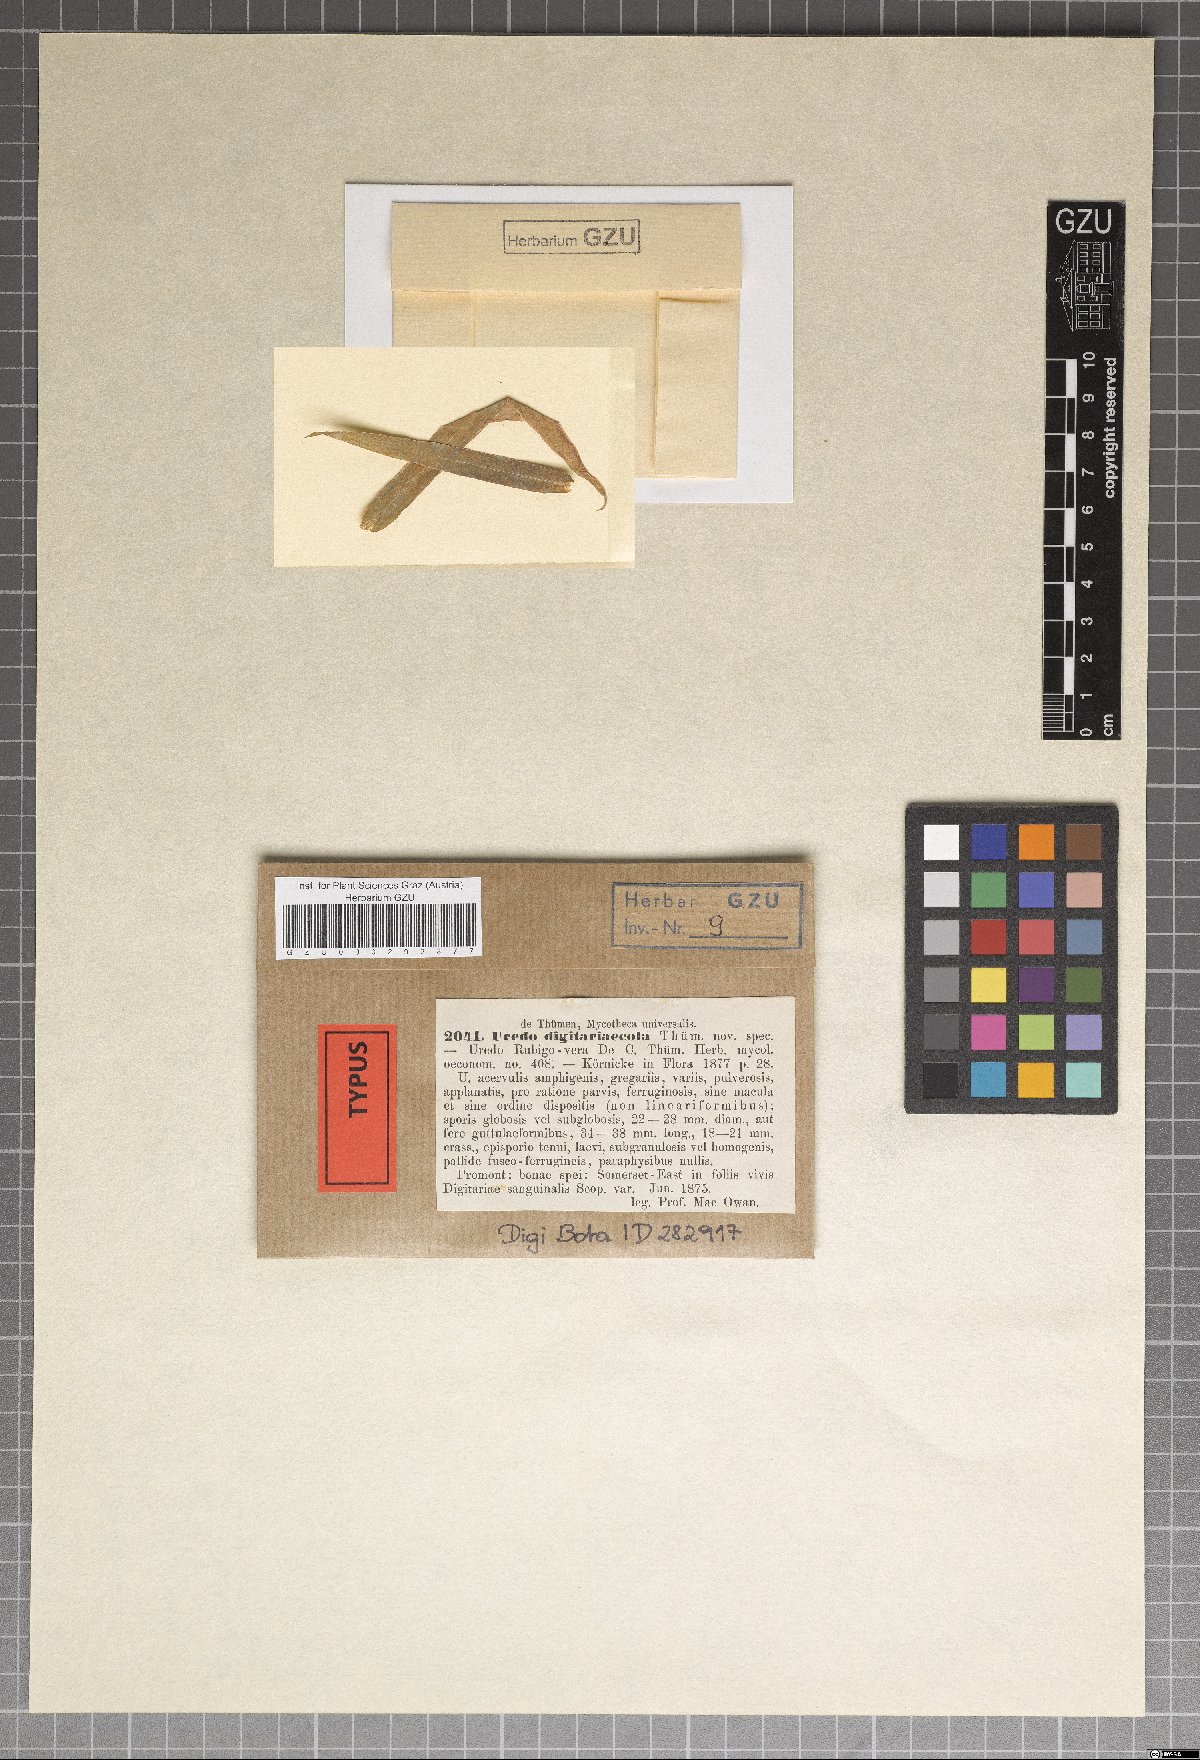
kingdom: Plantae
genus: Uredo
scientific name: Uredo
